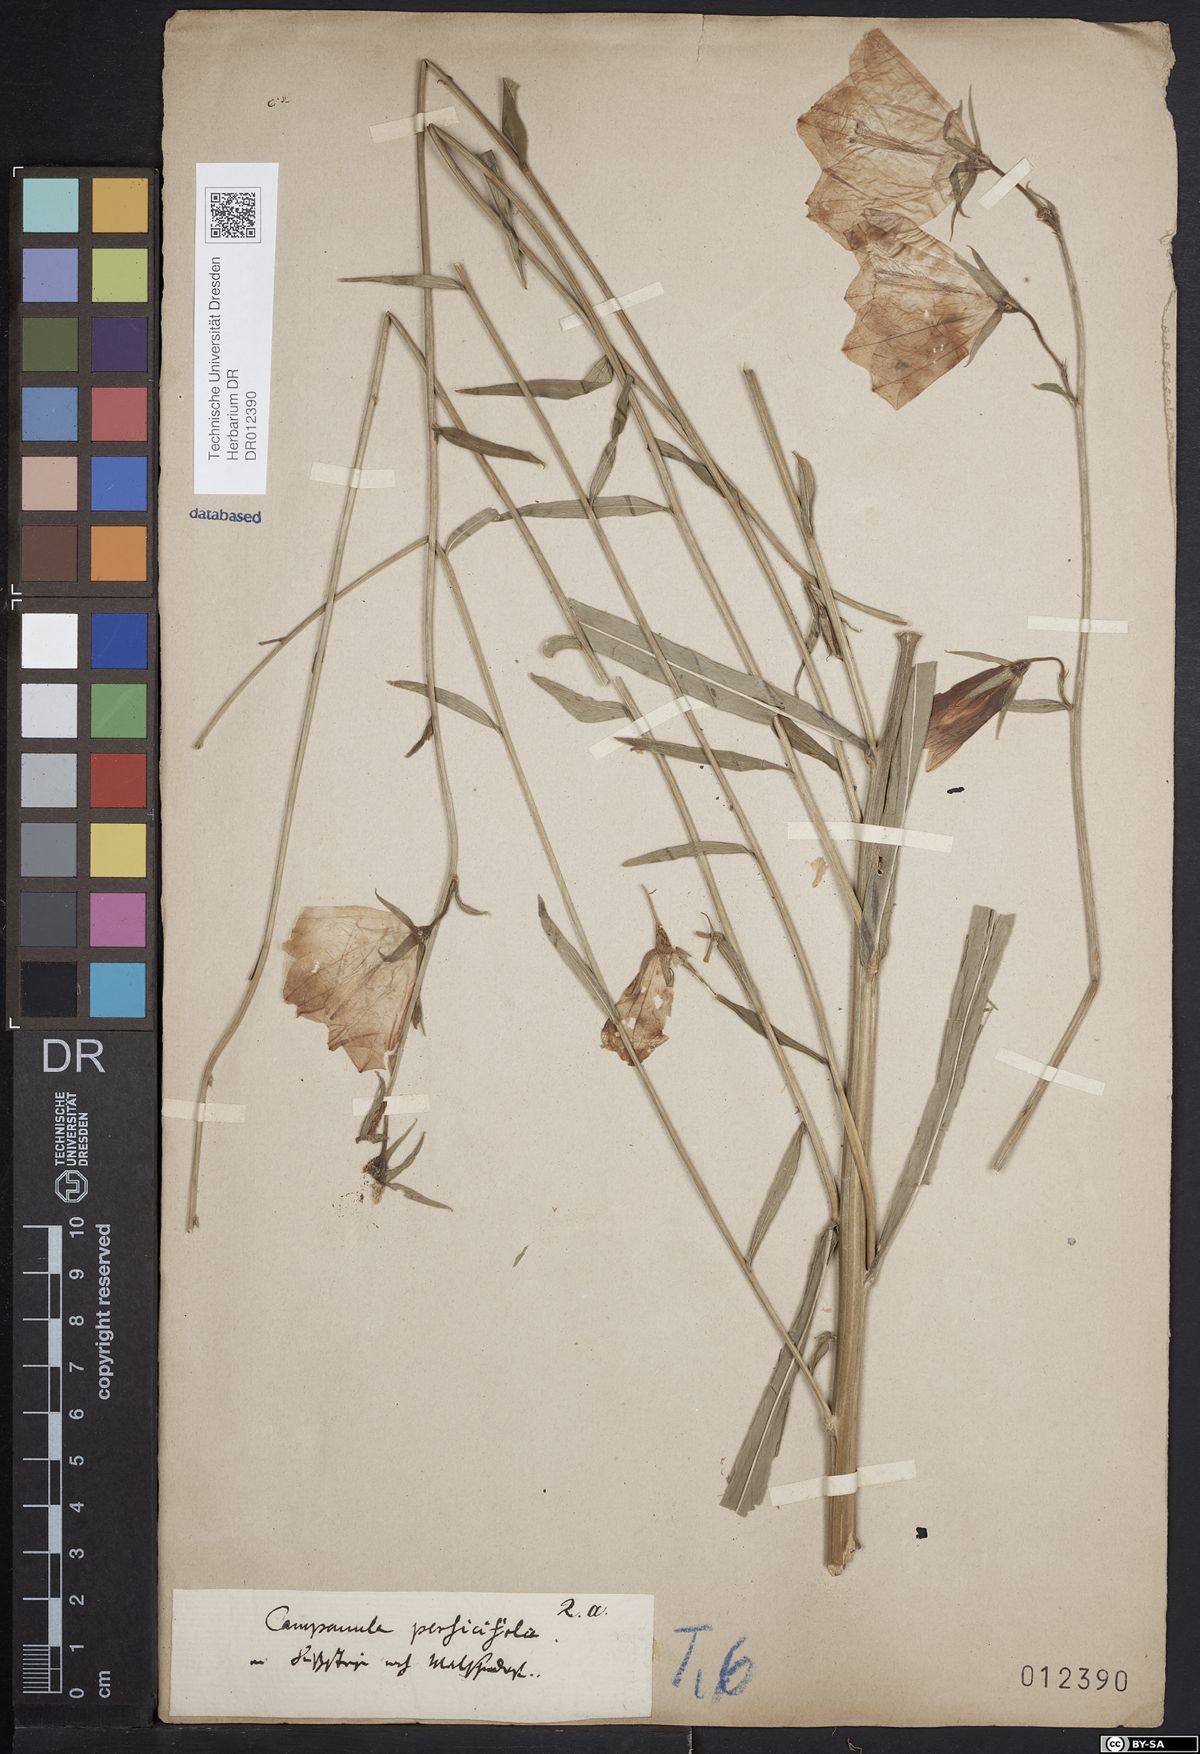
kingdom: Plantae
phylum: Tracheophyta
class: Magnoliopsida
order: Asterales
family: Campanulaceae
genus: Campanula
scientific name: Campanula persicifolia
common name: Peach-leaved bellflower
